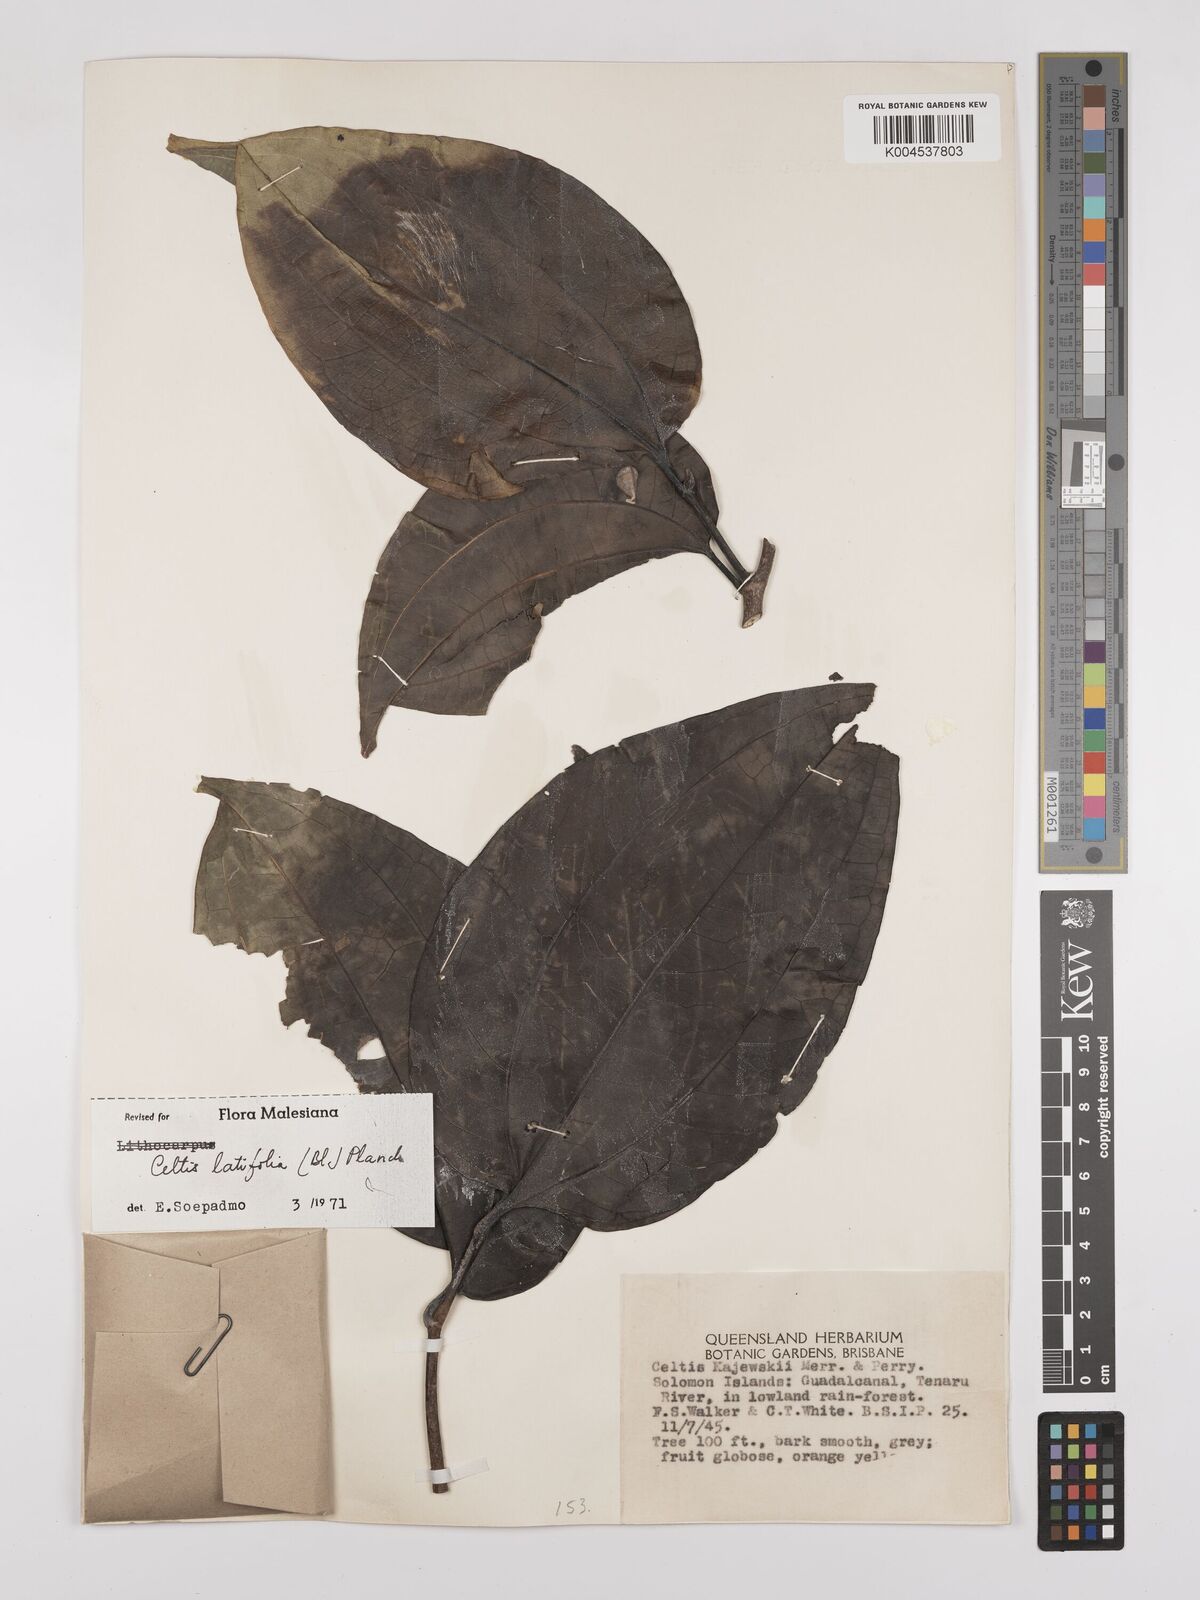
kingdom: Plantae
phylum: Tracheophyta
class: Magnoliopsida
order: Rosales
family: Cannabaceae
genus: Celtis
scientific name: Celtis latifolia
